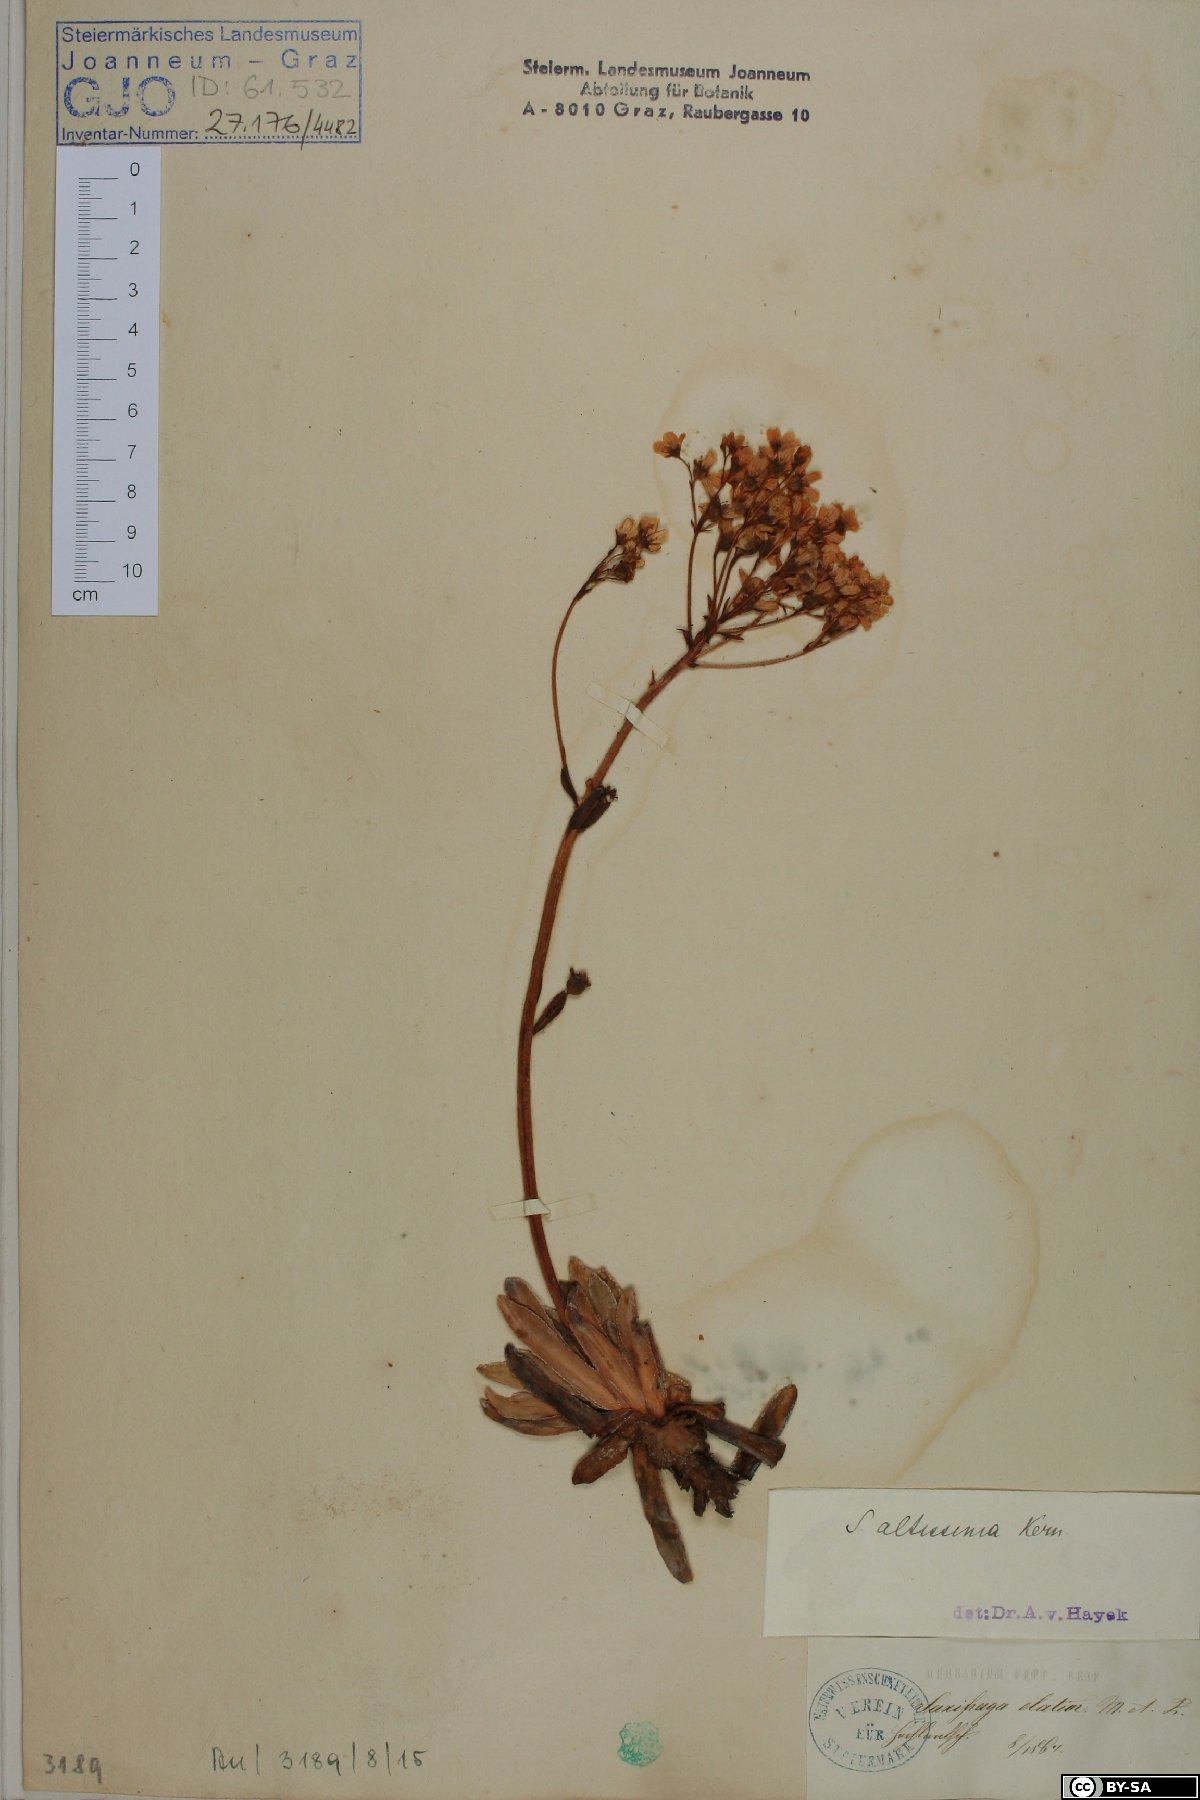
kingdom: Plantae
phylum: Tracheophyta
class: Magnoliopsida
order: Saxifragales
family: Saxifragaceae
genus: Saxifraga
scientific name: Saxifraga hostii
